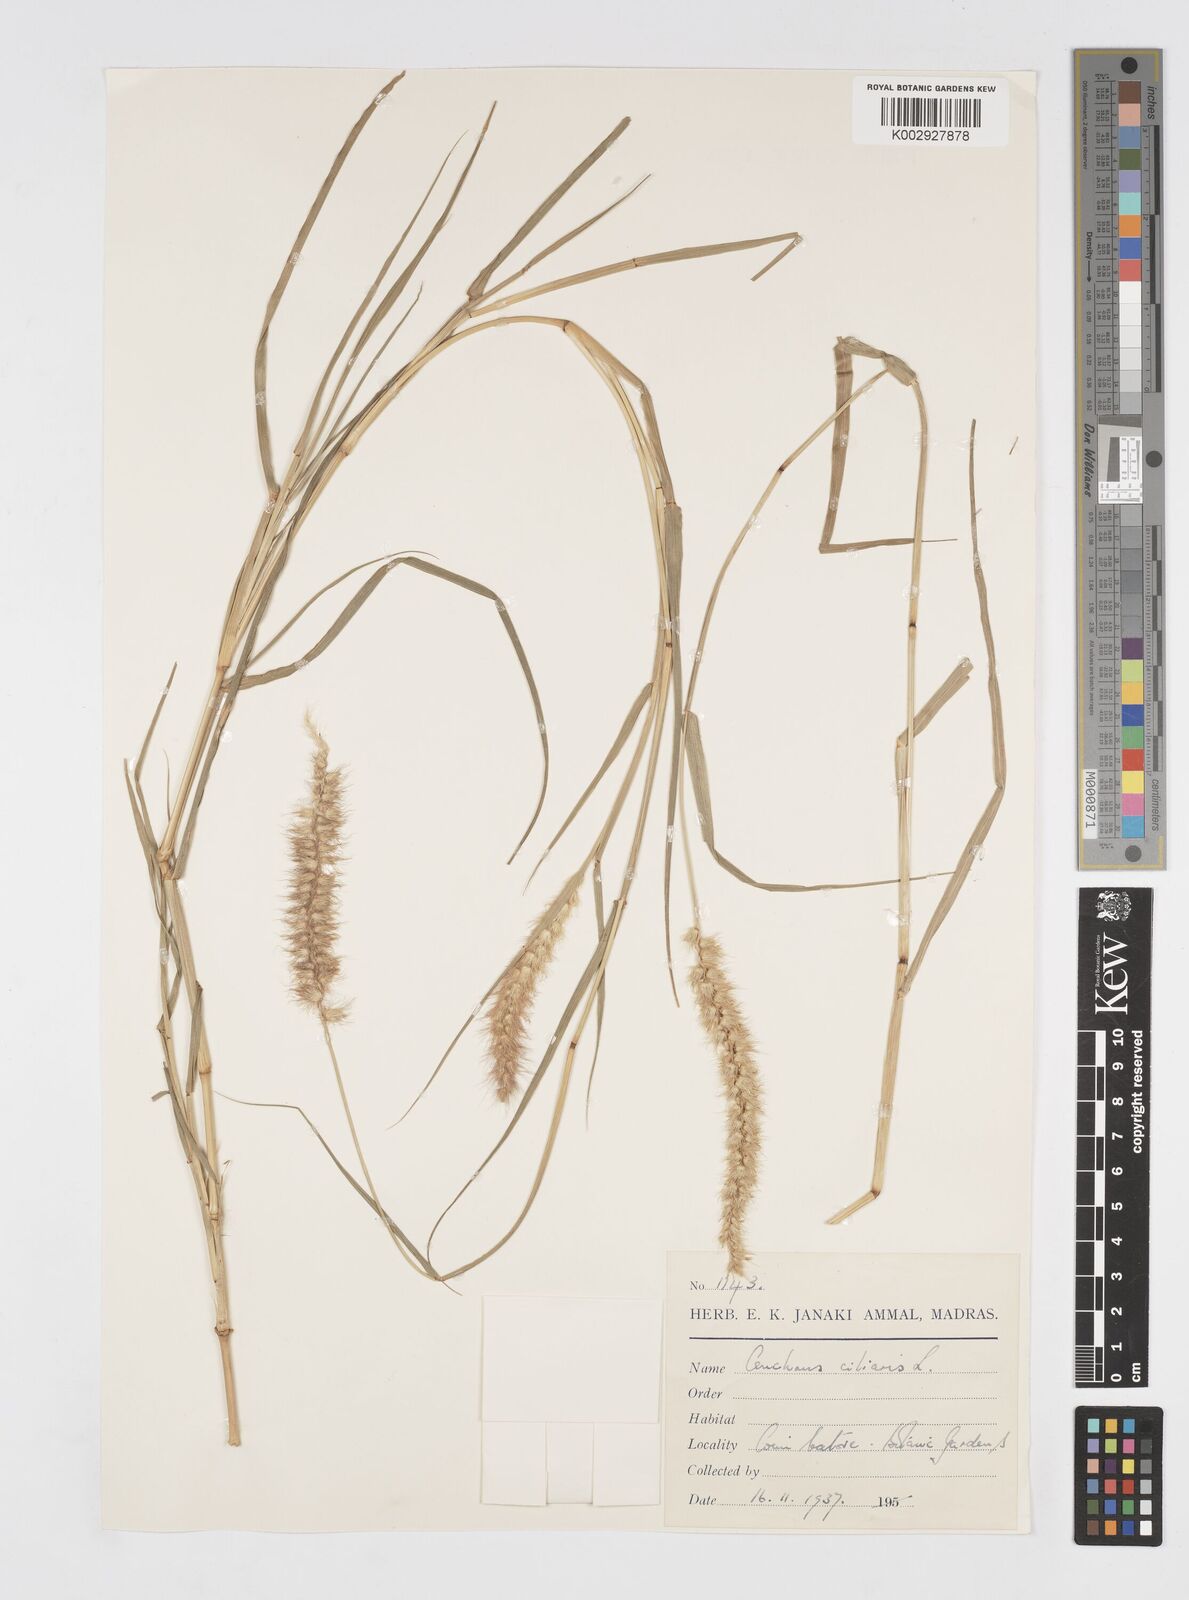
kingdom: Plantae
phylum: Tracheophyta
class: Liliopsida
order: Poales
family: Poaceae
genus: Cenchrus
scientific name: Cenchrus ciliaris
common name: Buffelgrass
